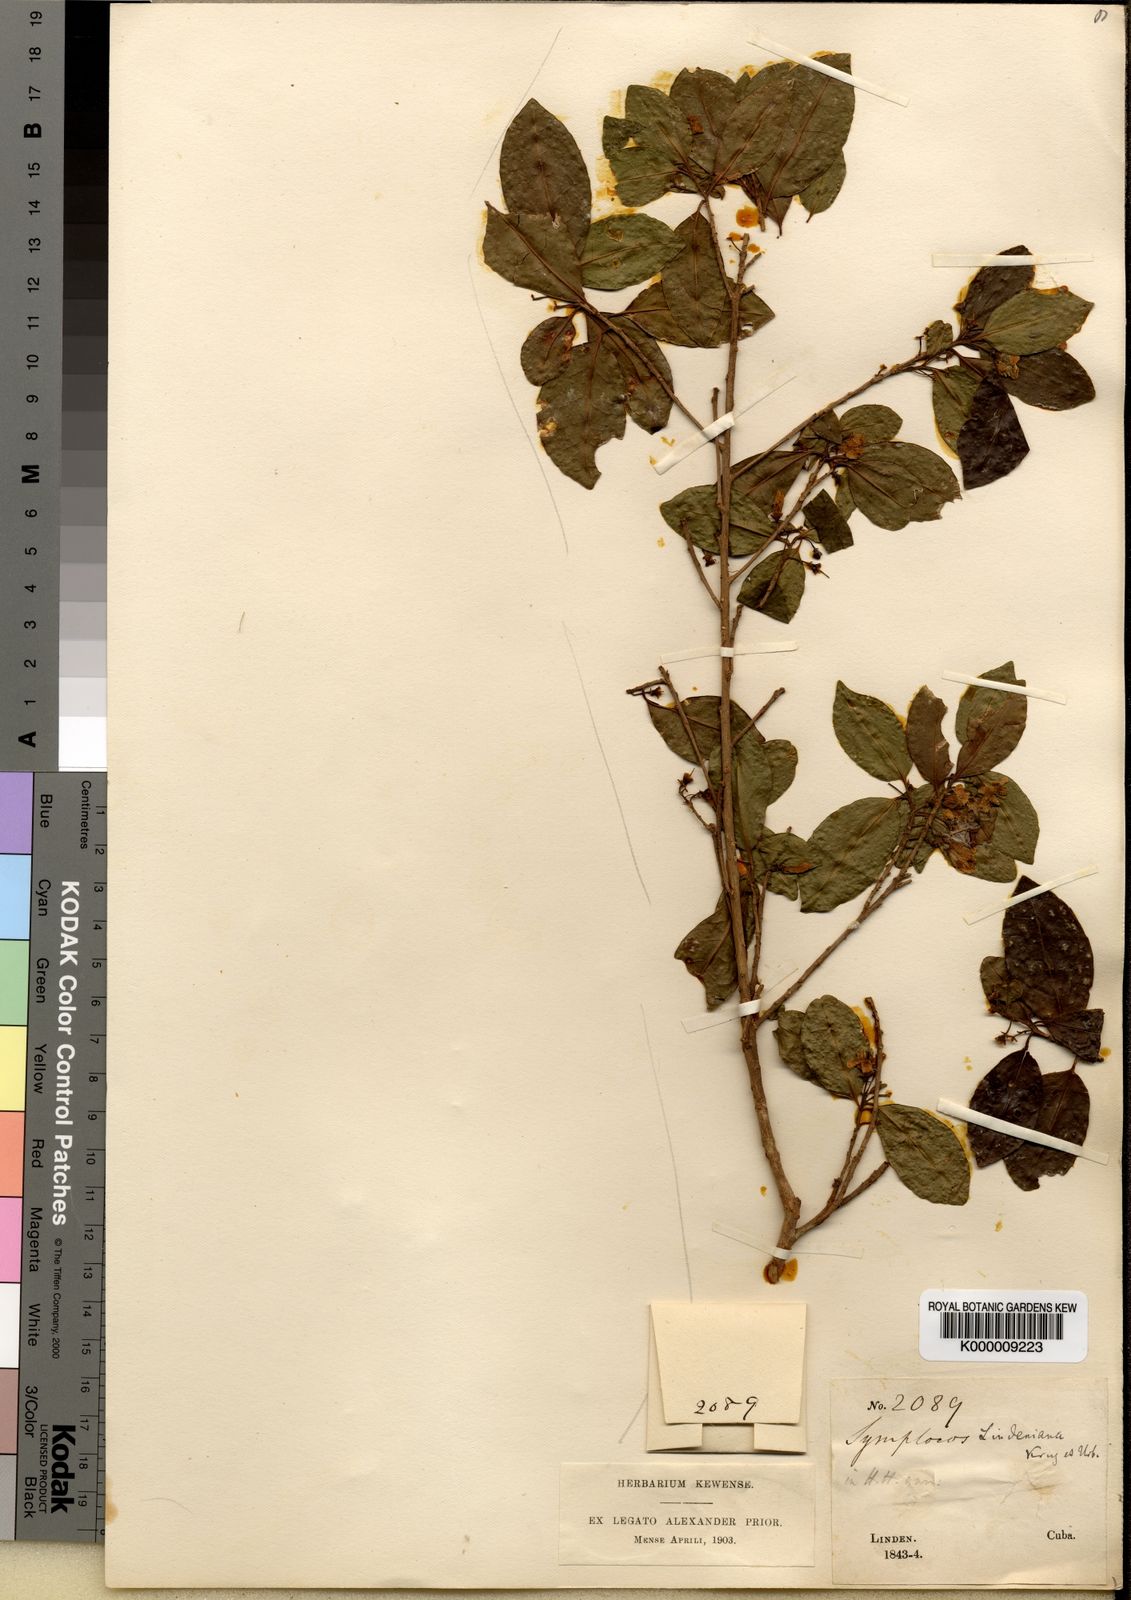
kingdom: Plantae
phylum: Tracheophyta
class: Magnoliopsida
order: Ericales
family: Symplocaceae
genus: Symplocos
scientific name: Symplocos cubensis
